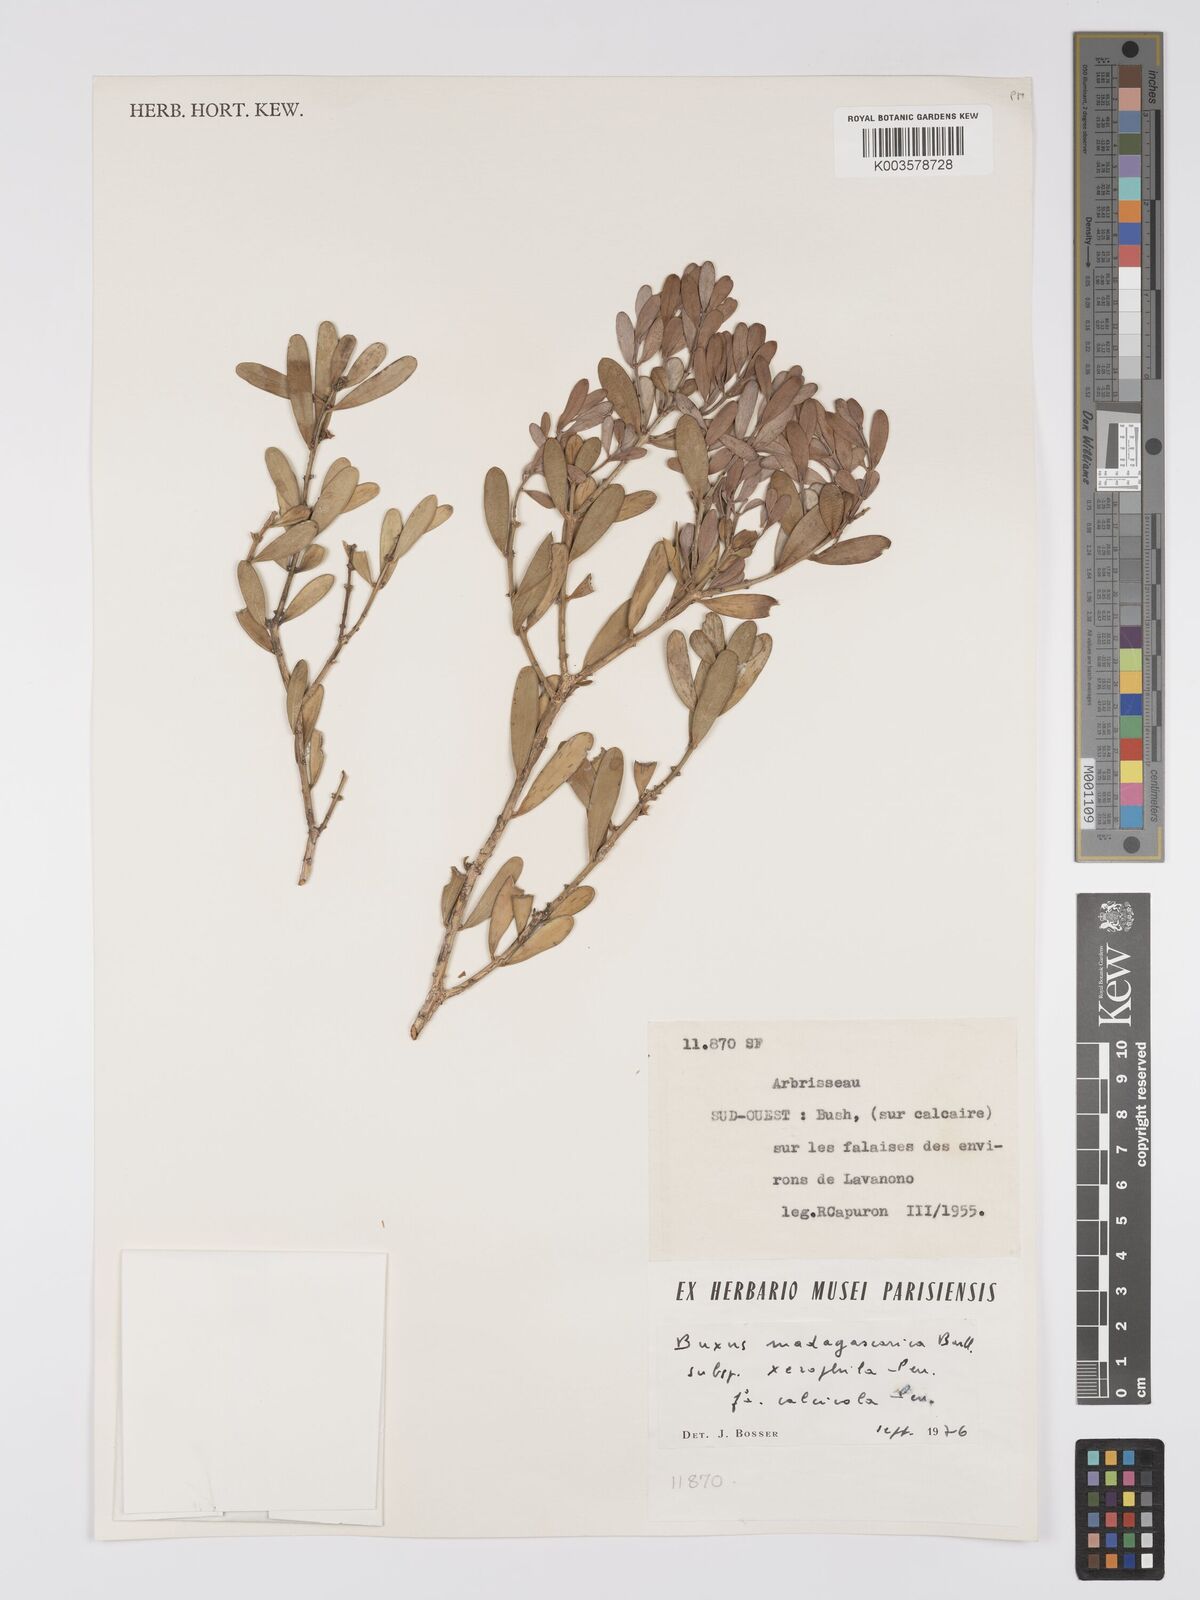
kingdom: Plantae
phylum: Tracheophyta
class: Magnoliopsida
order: Buxales
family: Buxaceae
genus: Buxus
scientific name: Buxus madagascarica
